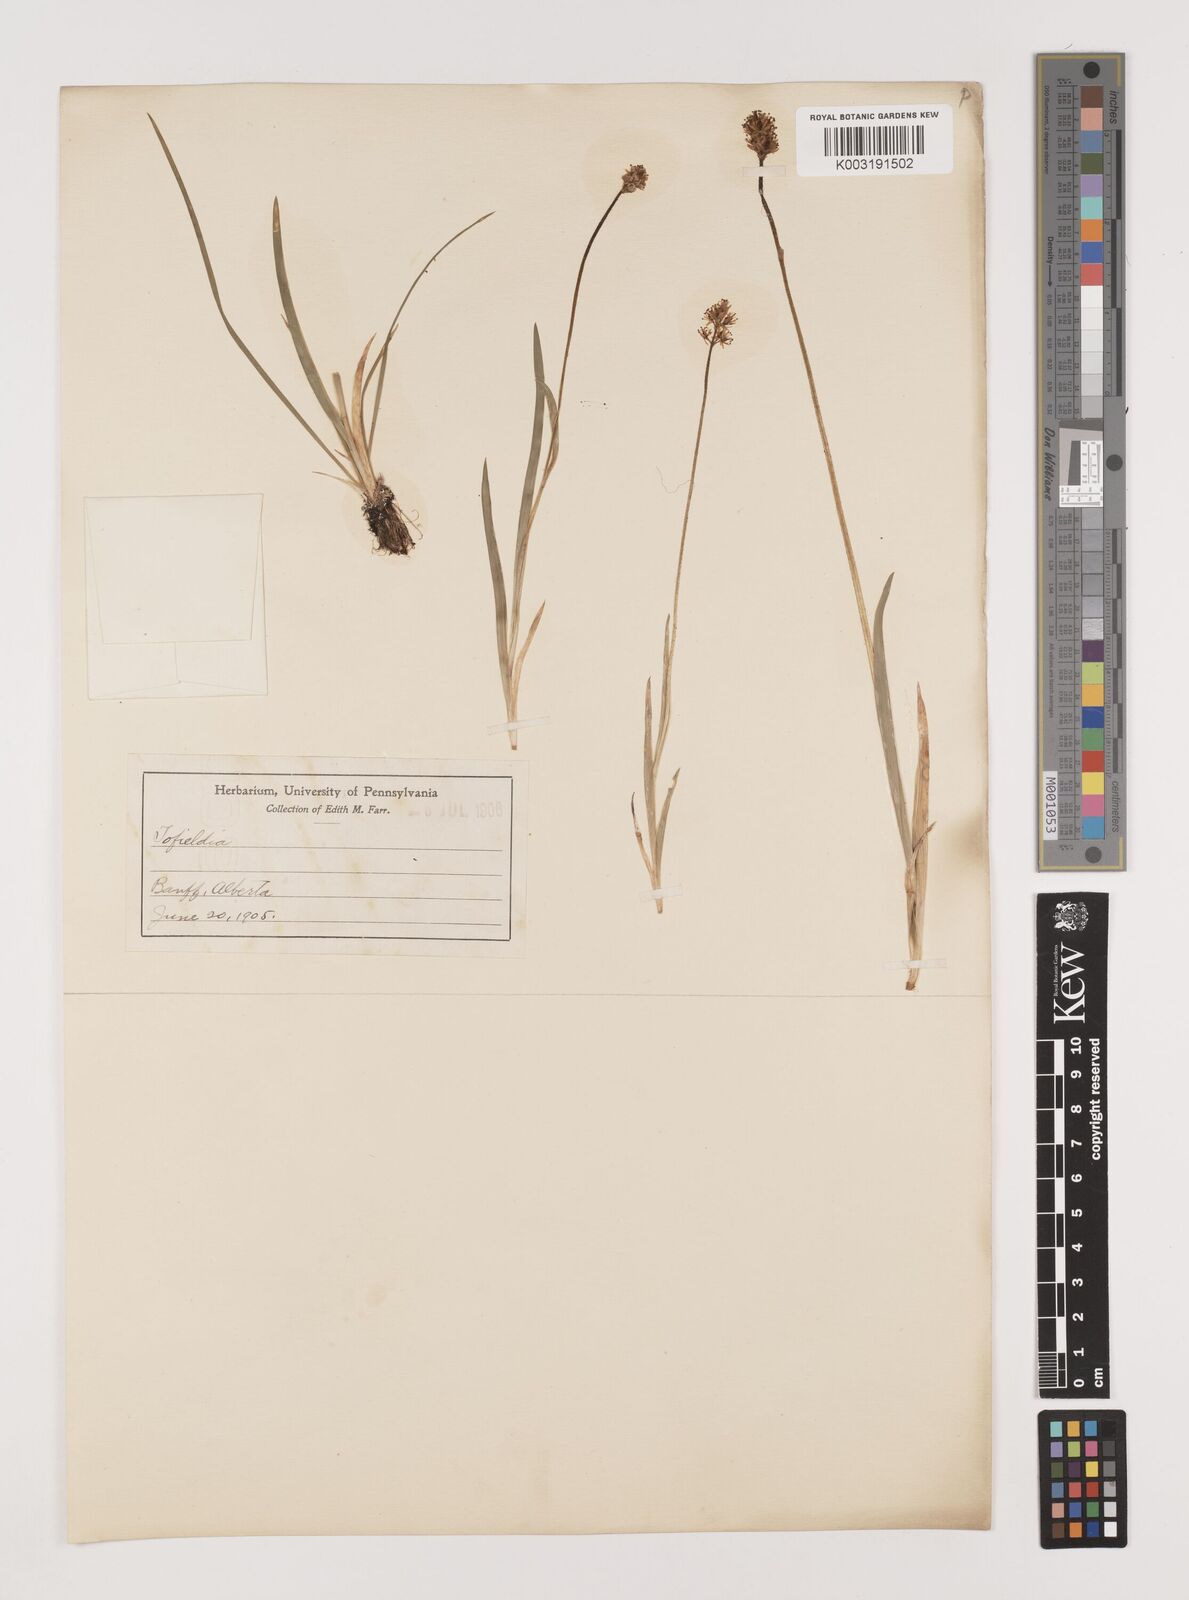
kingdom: Plantae
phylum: Tracheophyta
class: Liliopsida
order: Alismatales
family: Tofieldiaceae
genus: Tofieldia
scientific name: Tofieldia
